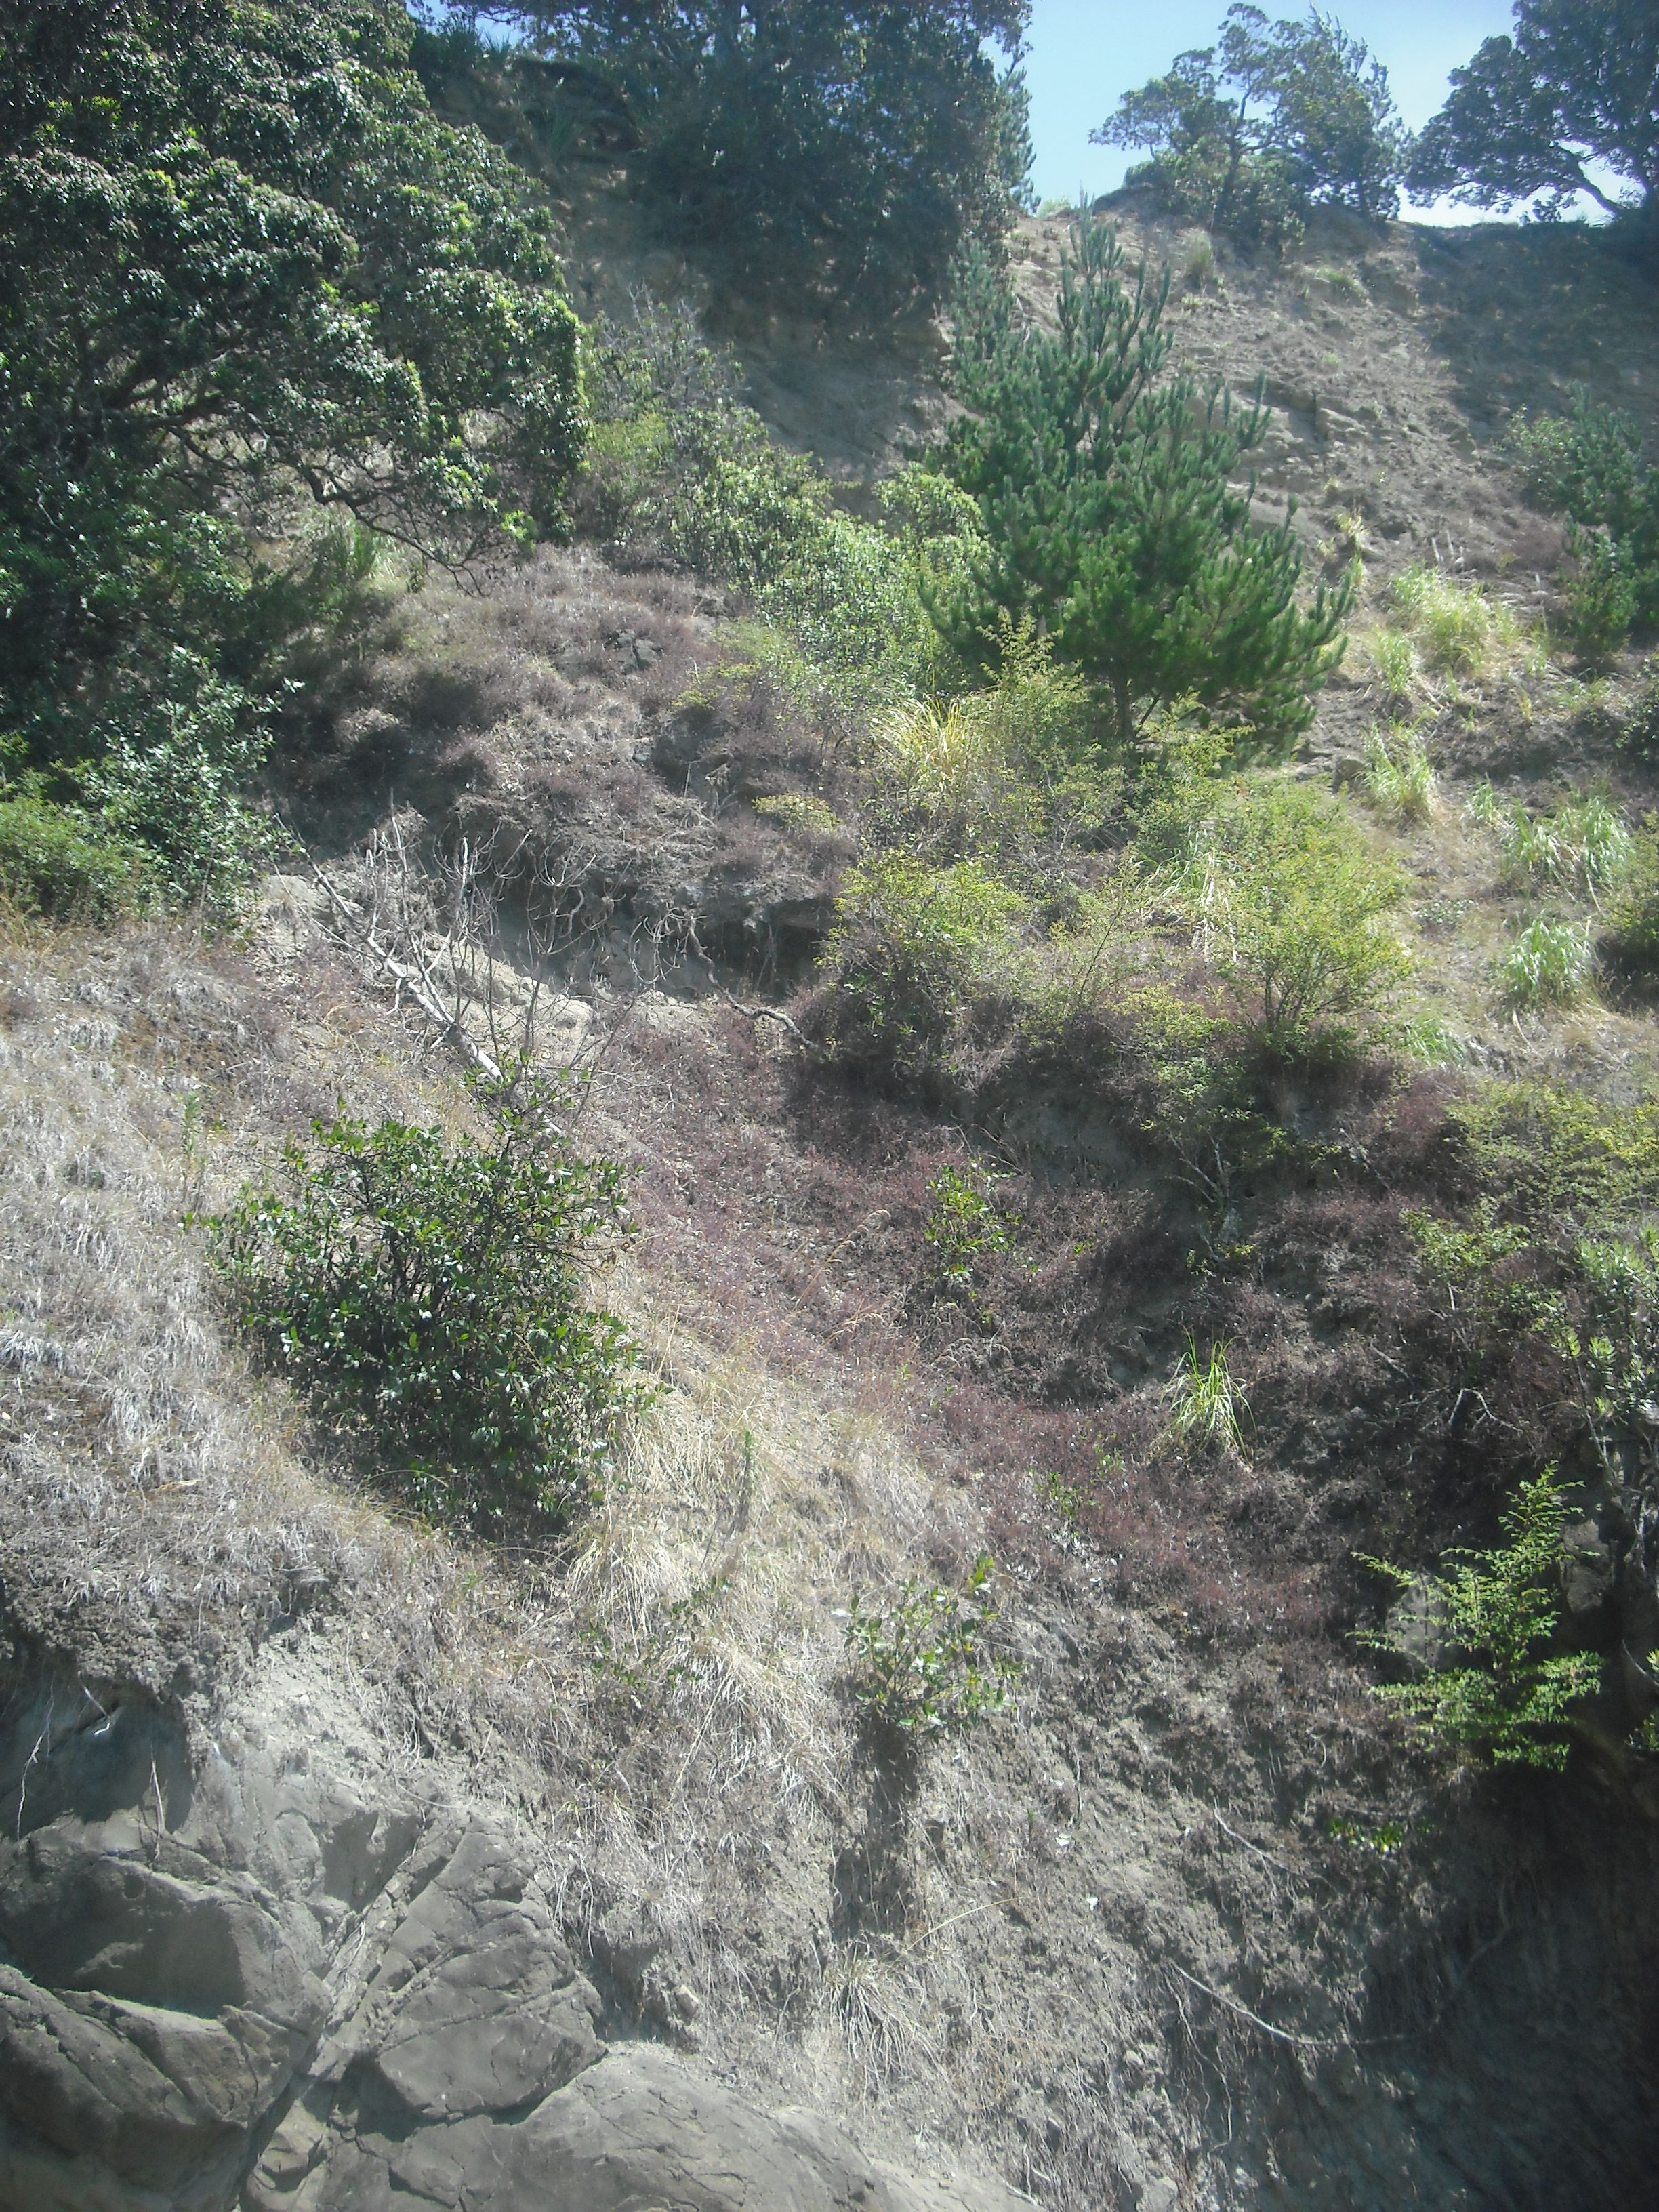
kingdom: Plantae
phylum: Tracheophyta
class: Magnoliopsida
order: Asterales
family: Asteraceae
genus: Erigeron
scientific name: Erigeron karvinskianus
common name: Mexican fleabane
